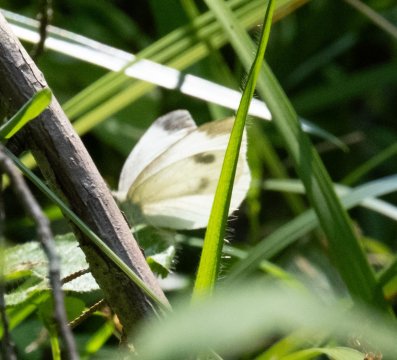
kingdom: Animalia
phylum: Arthropoda
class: Insecta
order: Lepidoptera
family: Pieridae
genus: Pieris
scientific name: Pieris rapae
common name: Cabbage White
